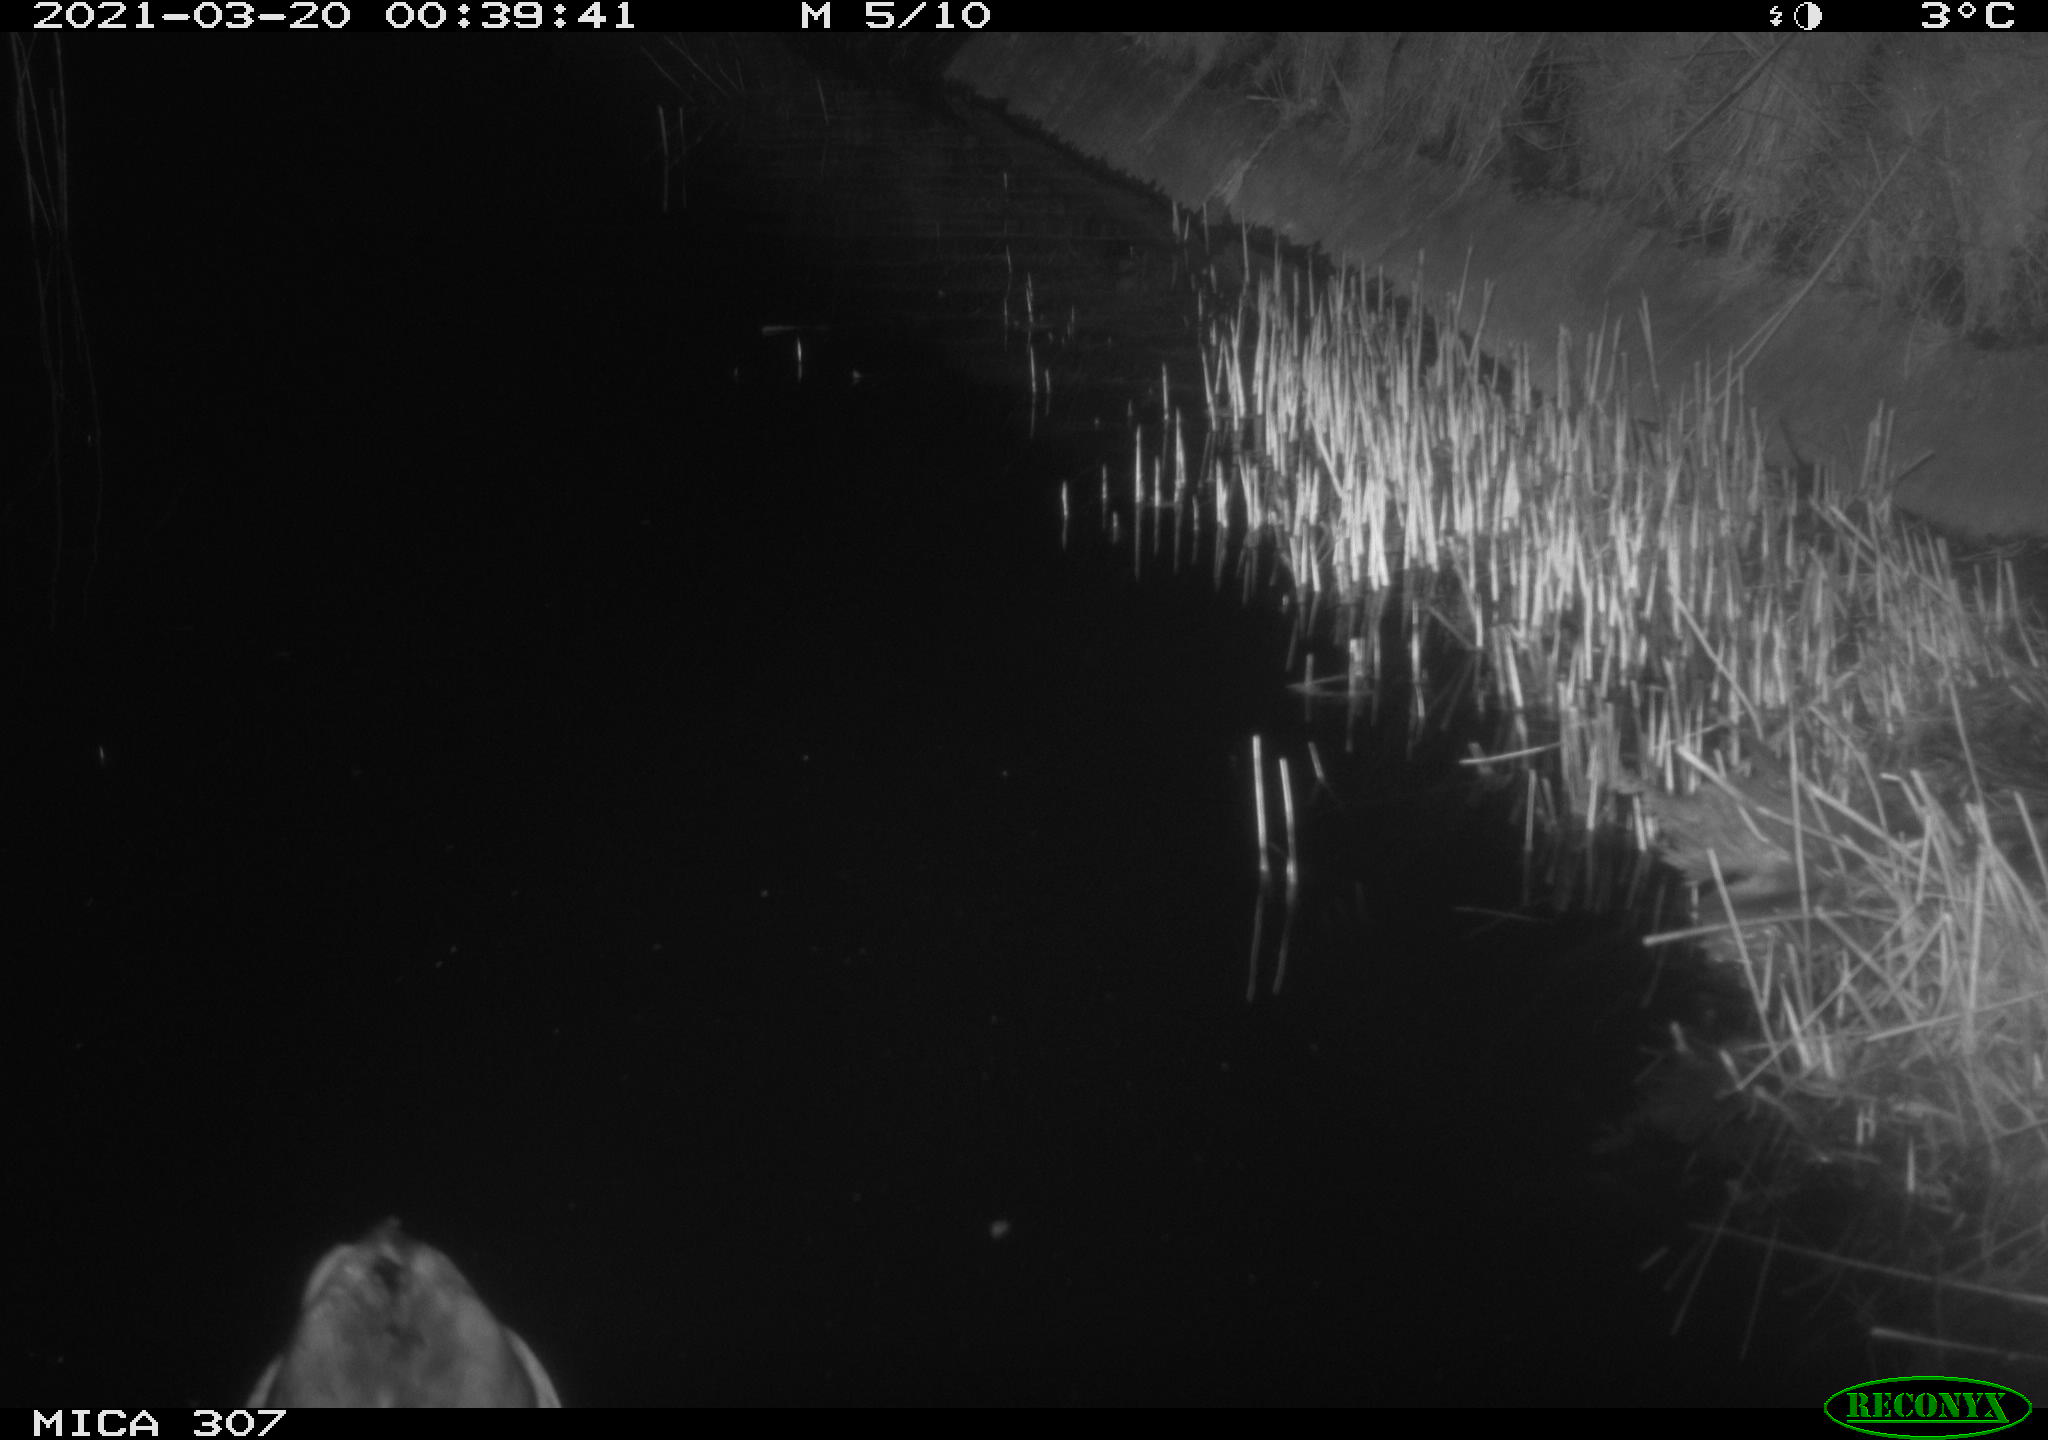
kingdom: Animalia
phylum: Chordata
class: Aves
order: Anseriformes
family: Anatidae
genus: Anas
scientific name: Anas platyrhynchos
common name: Mallard
